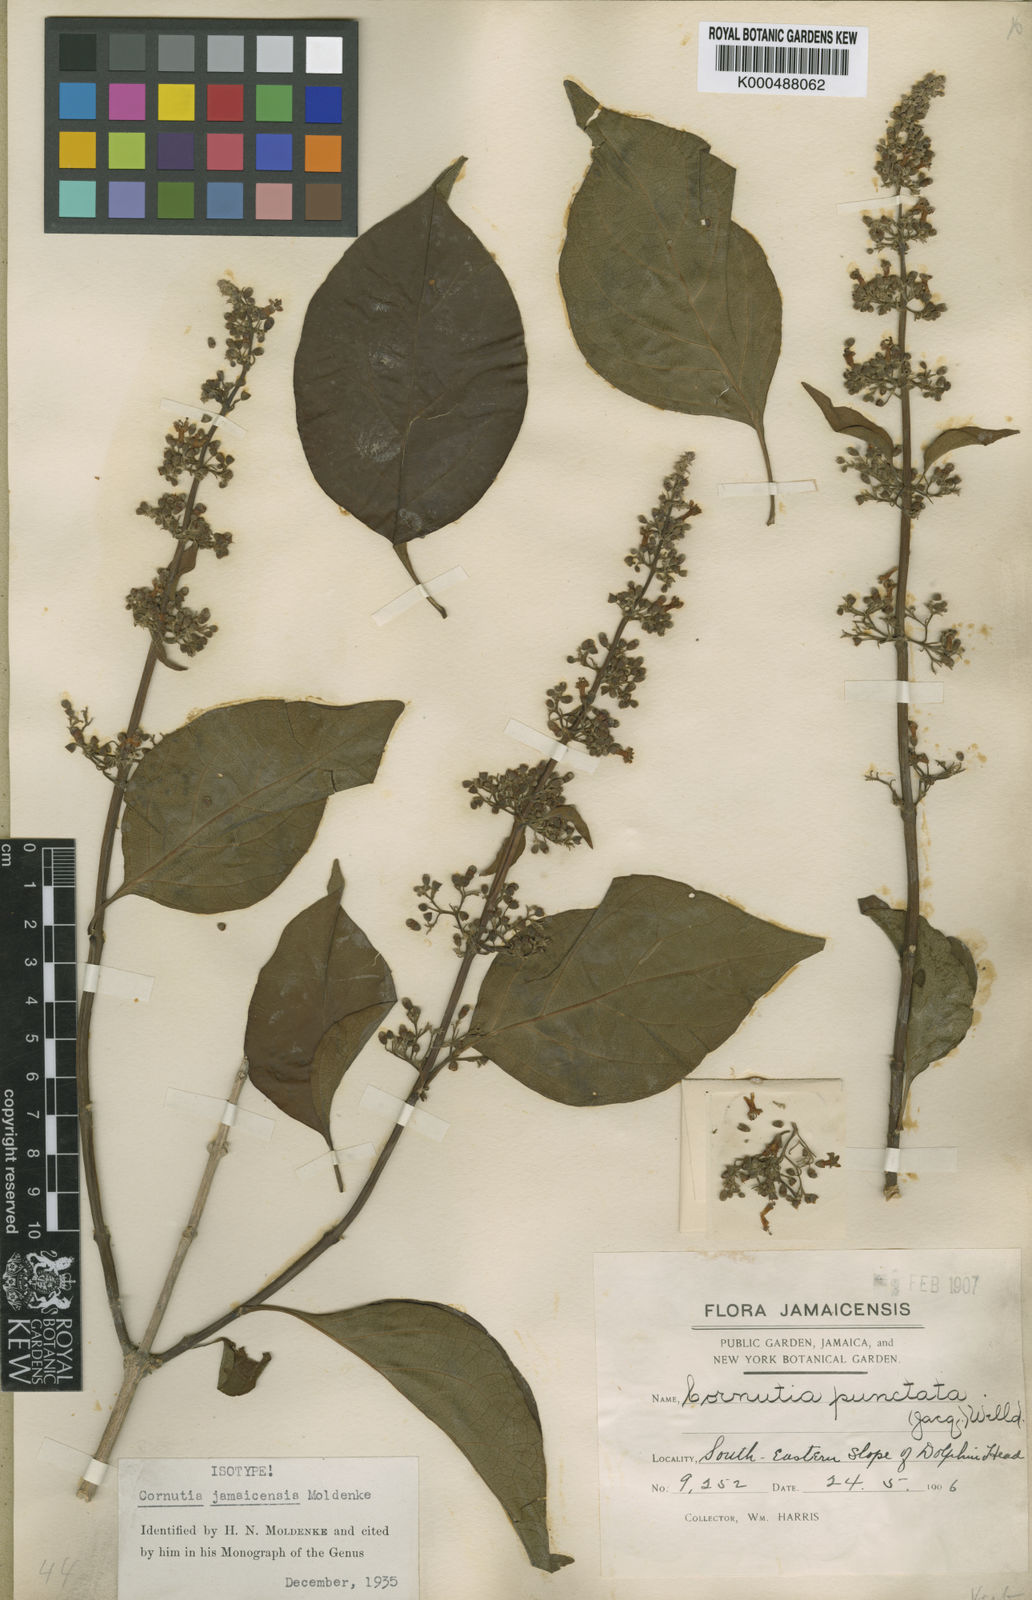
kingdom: Plantae
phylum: Tracheophyta
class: Magnoliopsida
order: Lamiales
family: Lamiaceae
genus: Cornutia
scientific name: Cornutia jamaicensis
